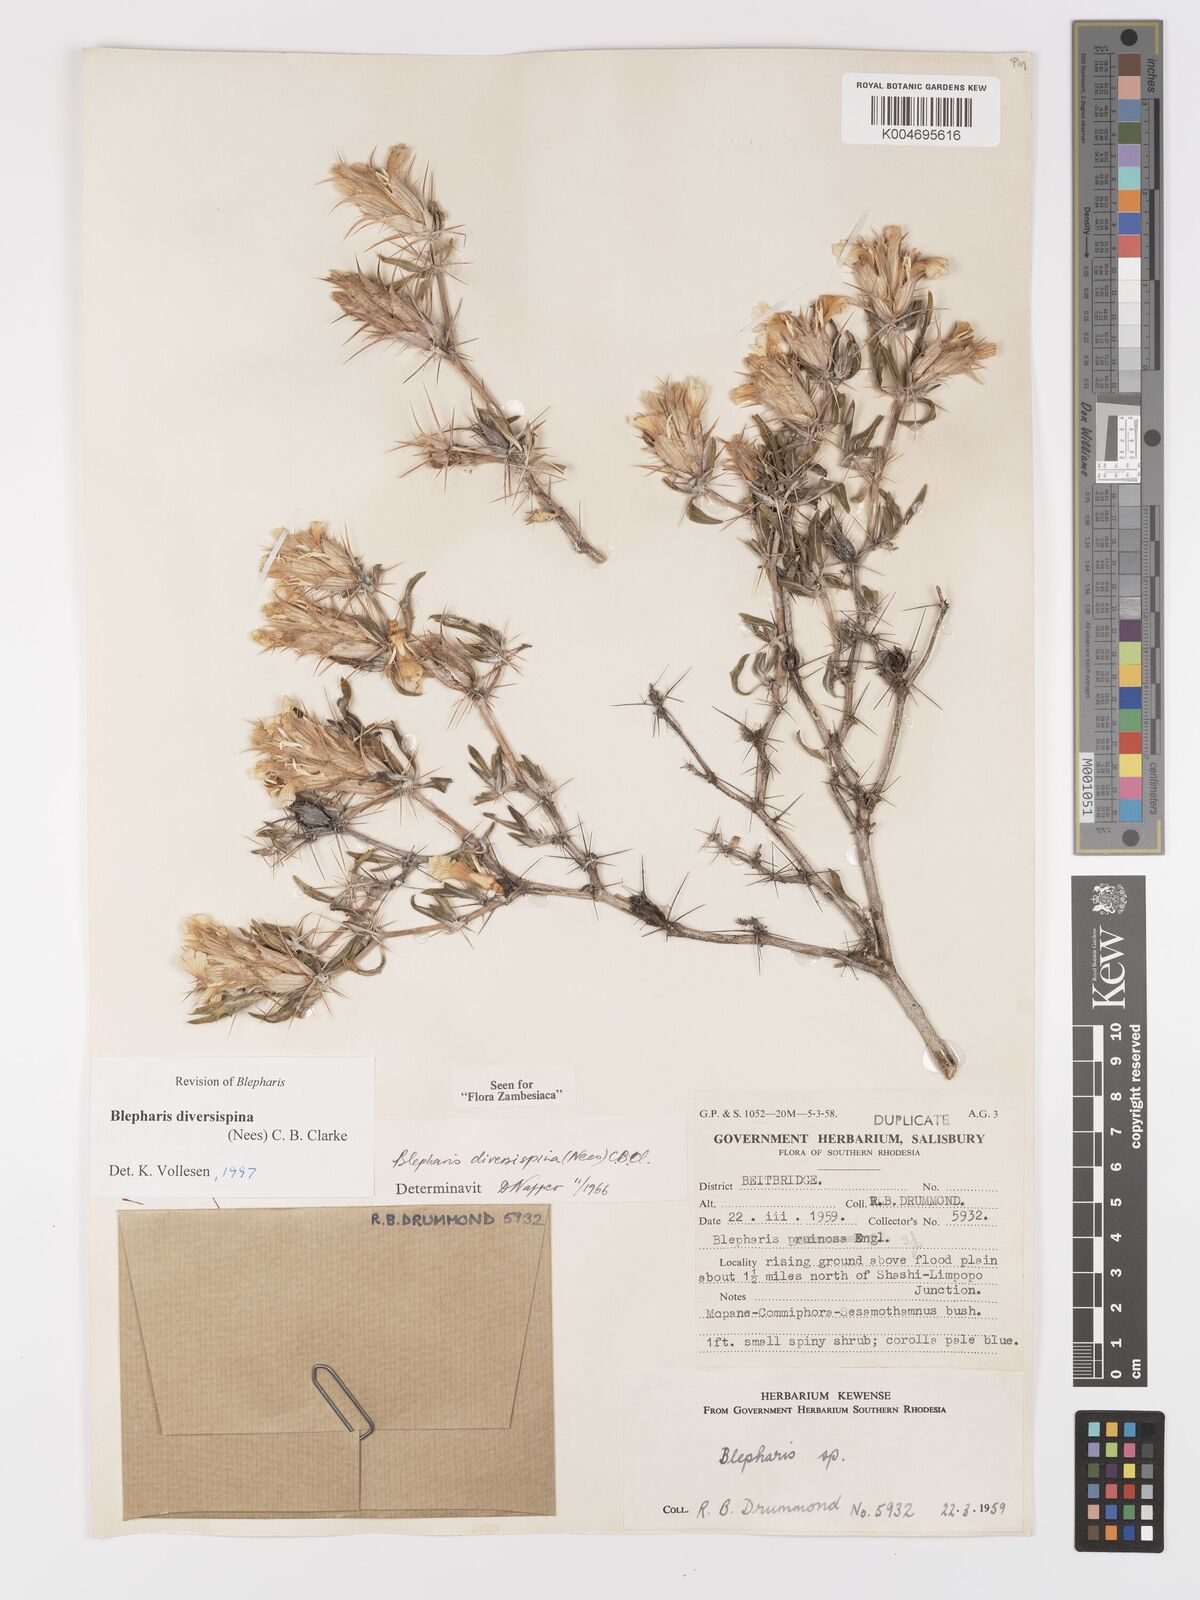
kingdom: Plantae
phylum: Tracheophyta
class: Magnoliopsida
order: Lamiales
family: Acanthaceae
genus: Blepharis
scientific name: Blepharis diversispina
